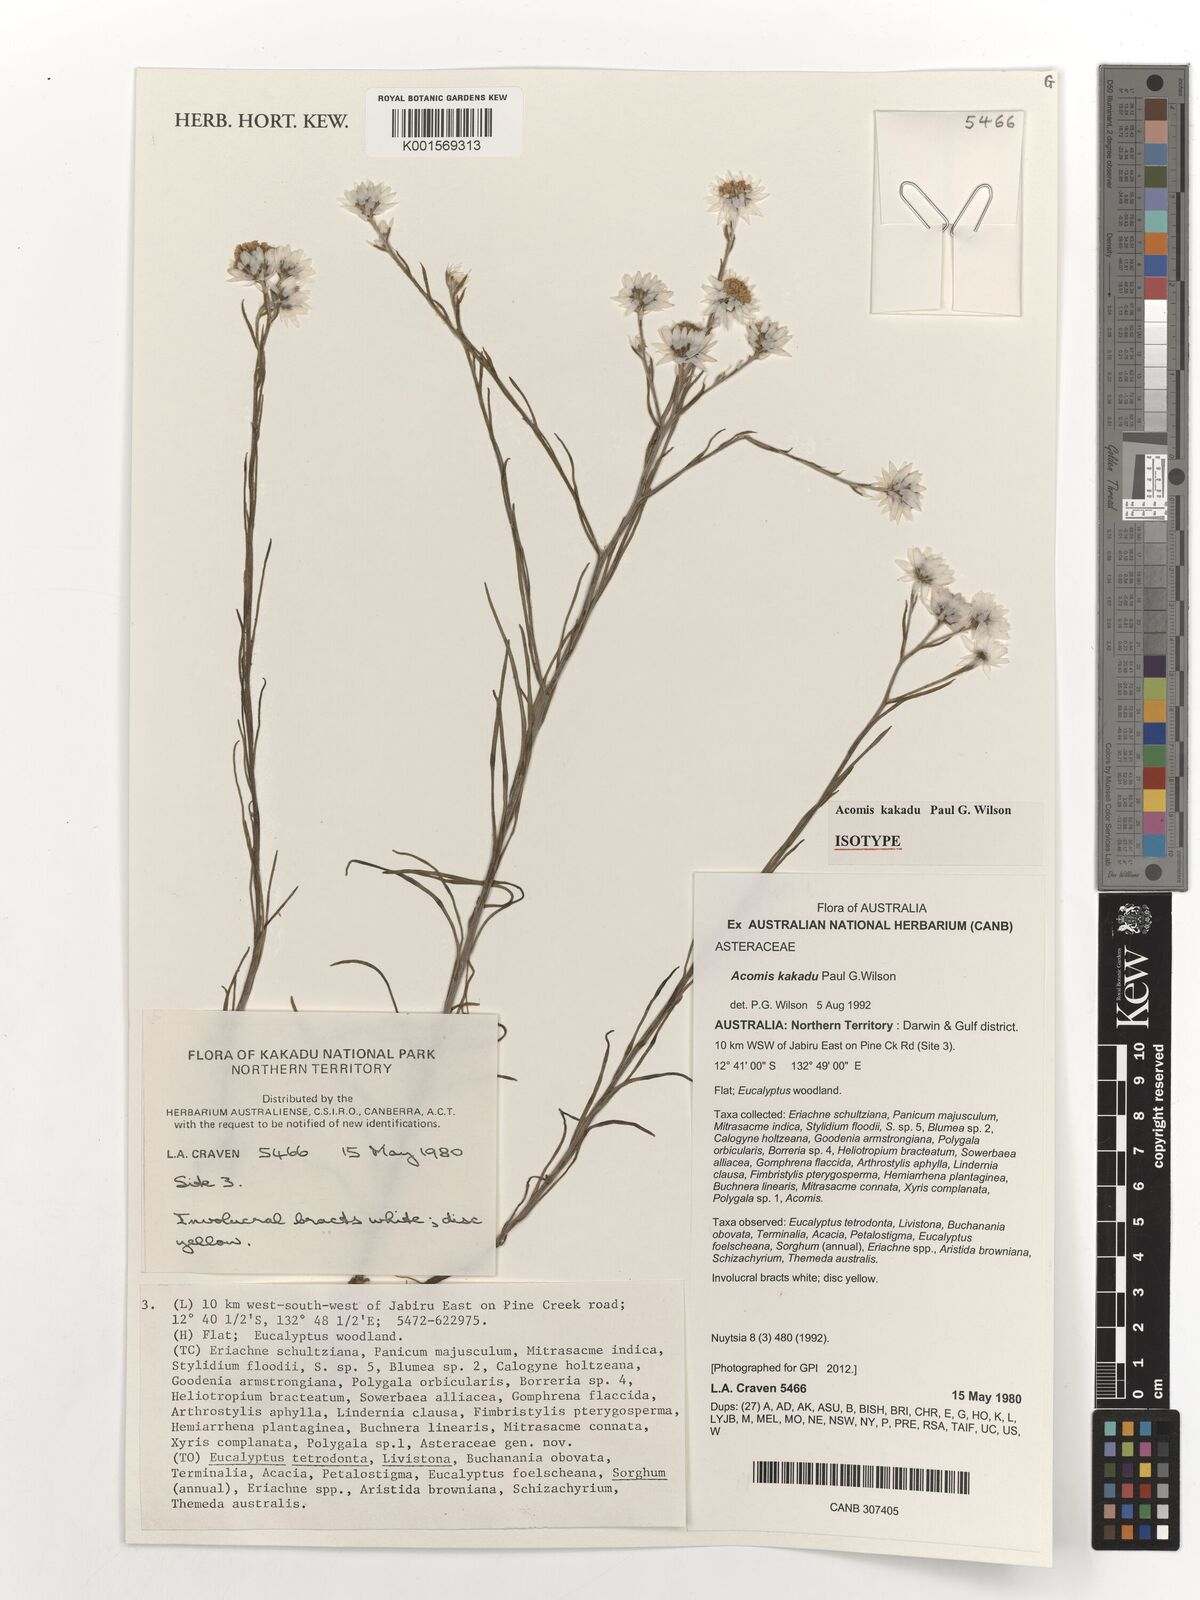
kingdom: Plantae
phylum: Tracheophyta
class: Magnoliopsida
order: Asterales
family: Asteraceae
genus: Acomis
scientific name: Acomis kakadu
